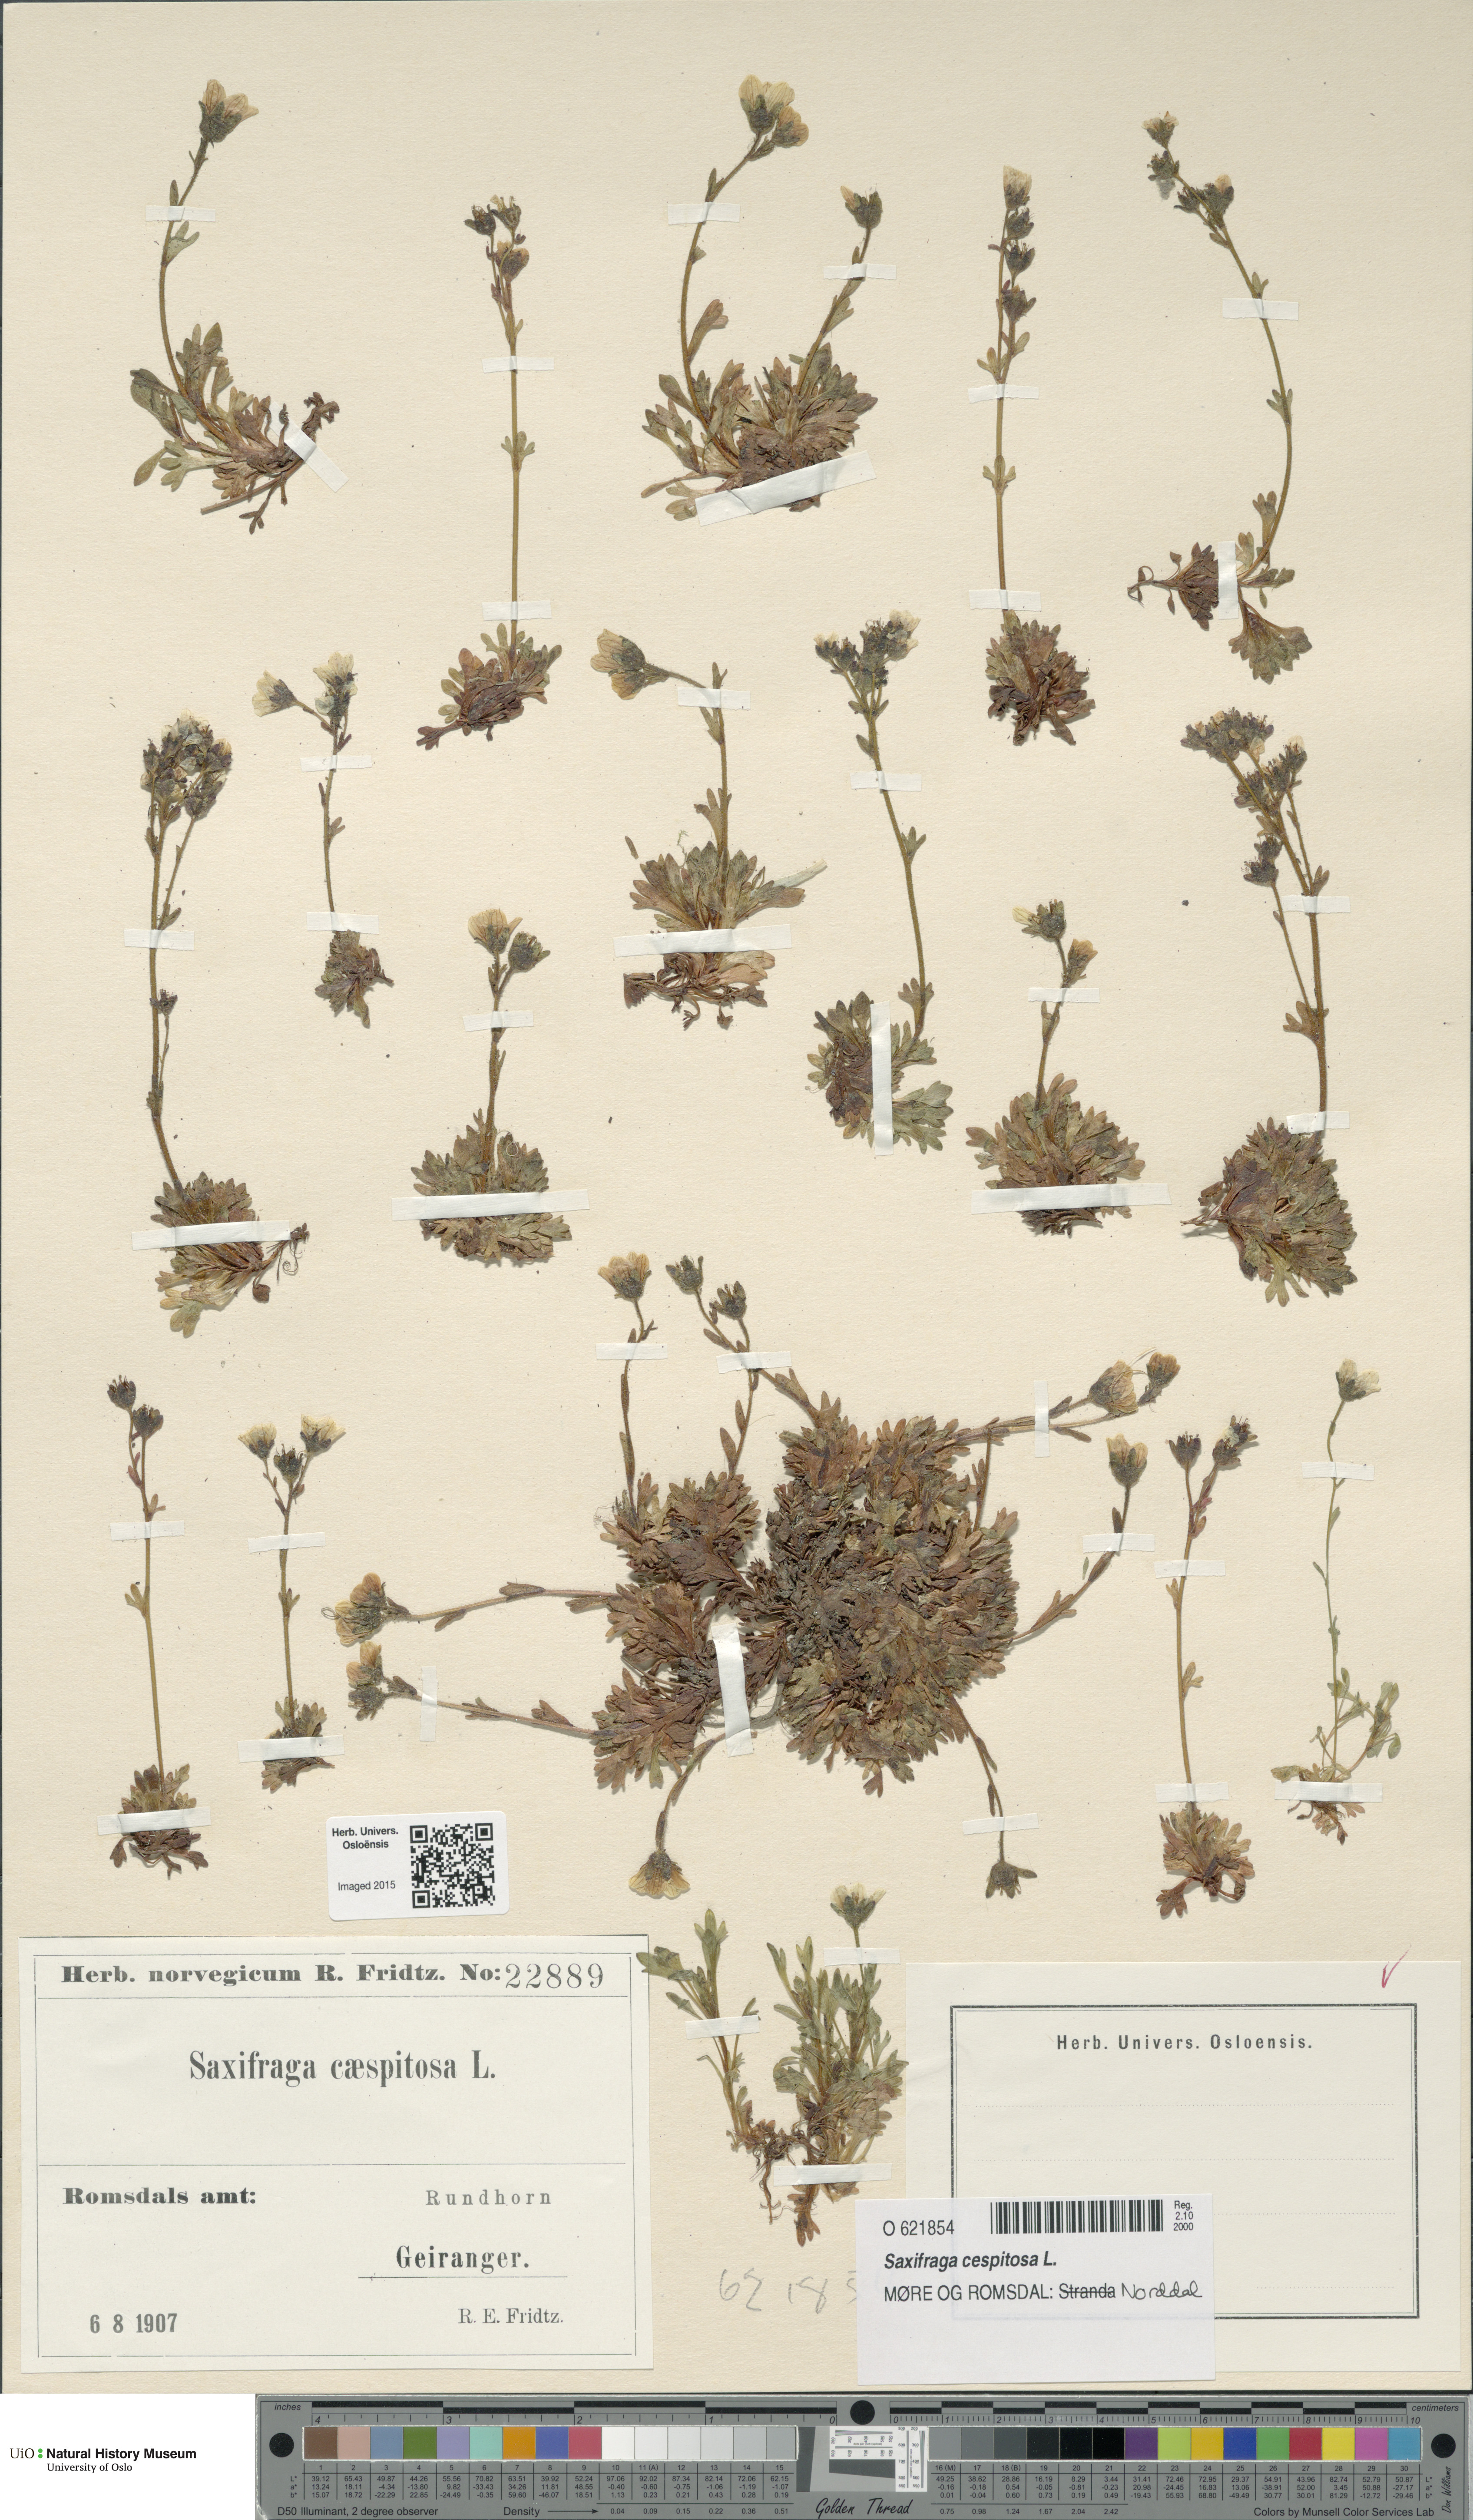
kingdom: Plantae
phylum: Tracheophyta
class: Magnoliopsida
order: Saxifragales
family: Saxifragaceae
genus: Saxifraga
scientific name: Saxifraga cespitosa
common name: Tufted saxifrage
